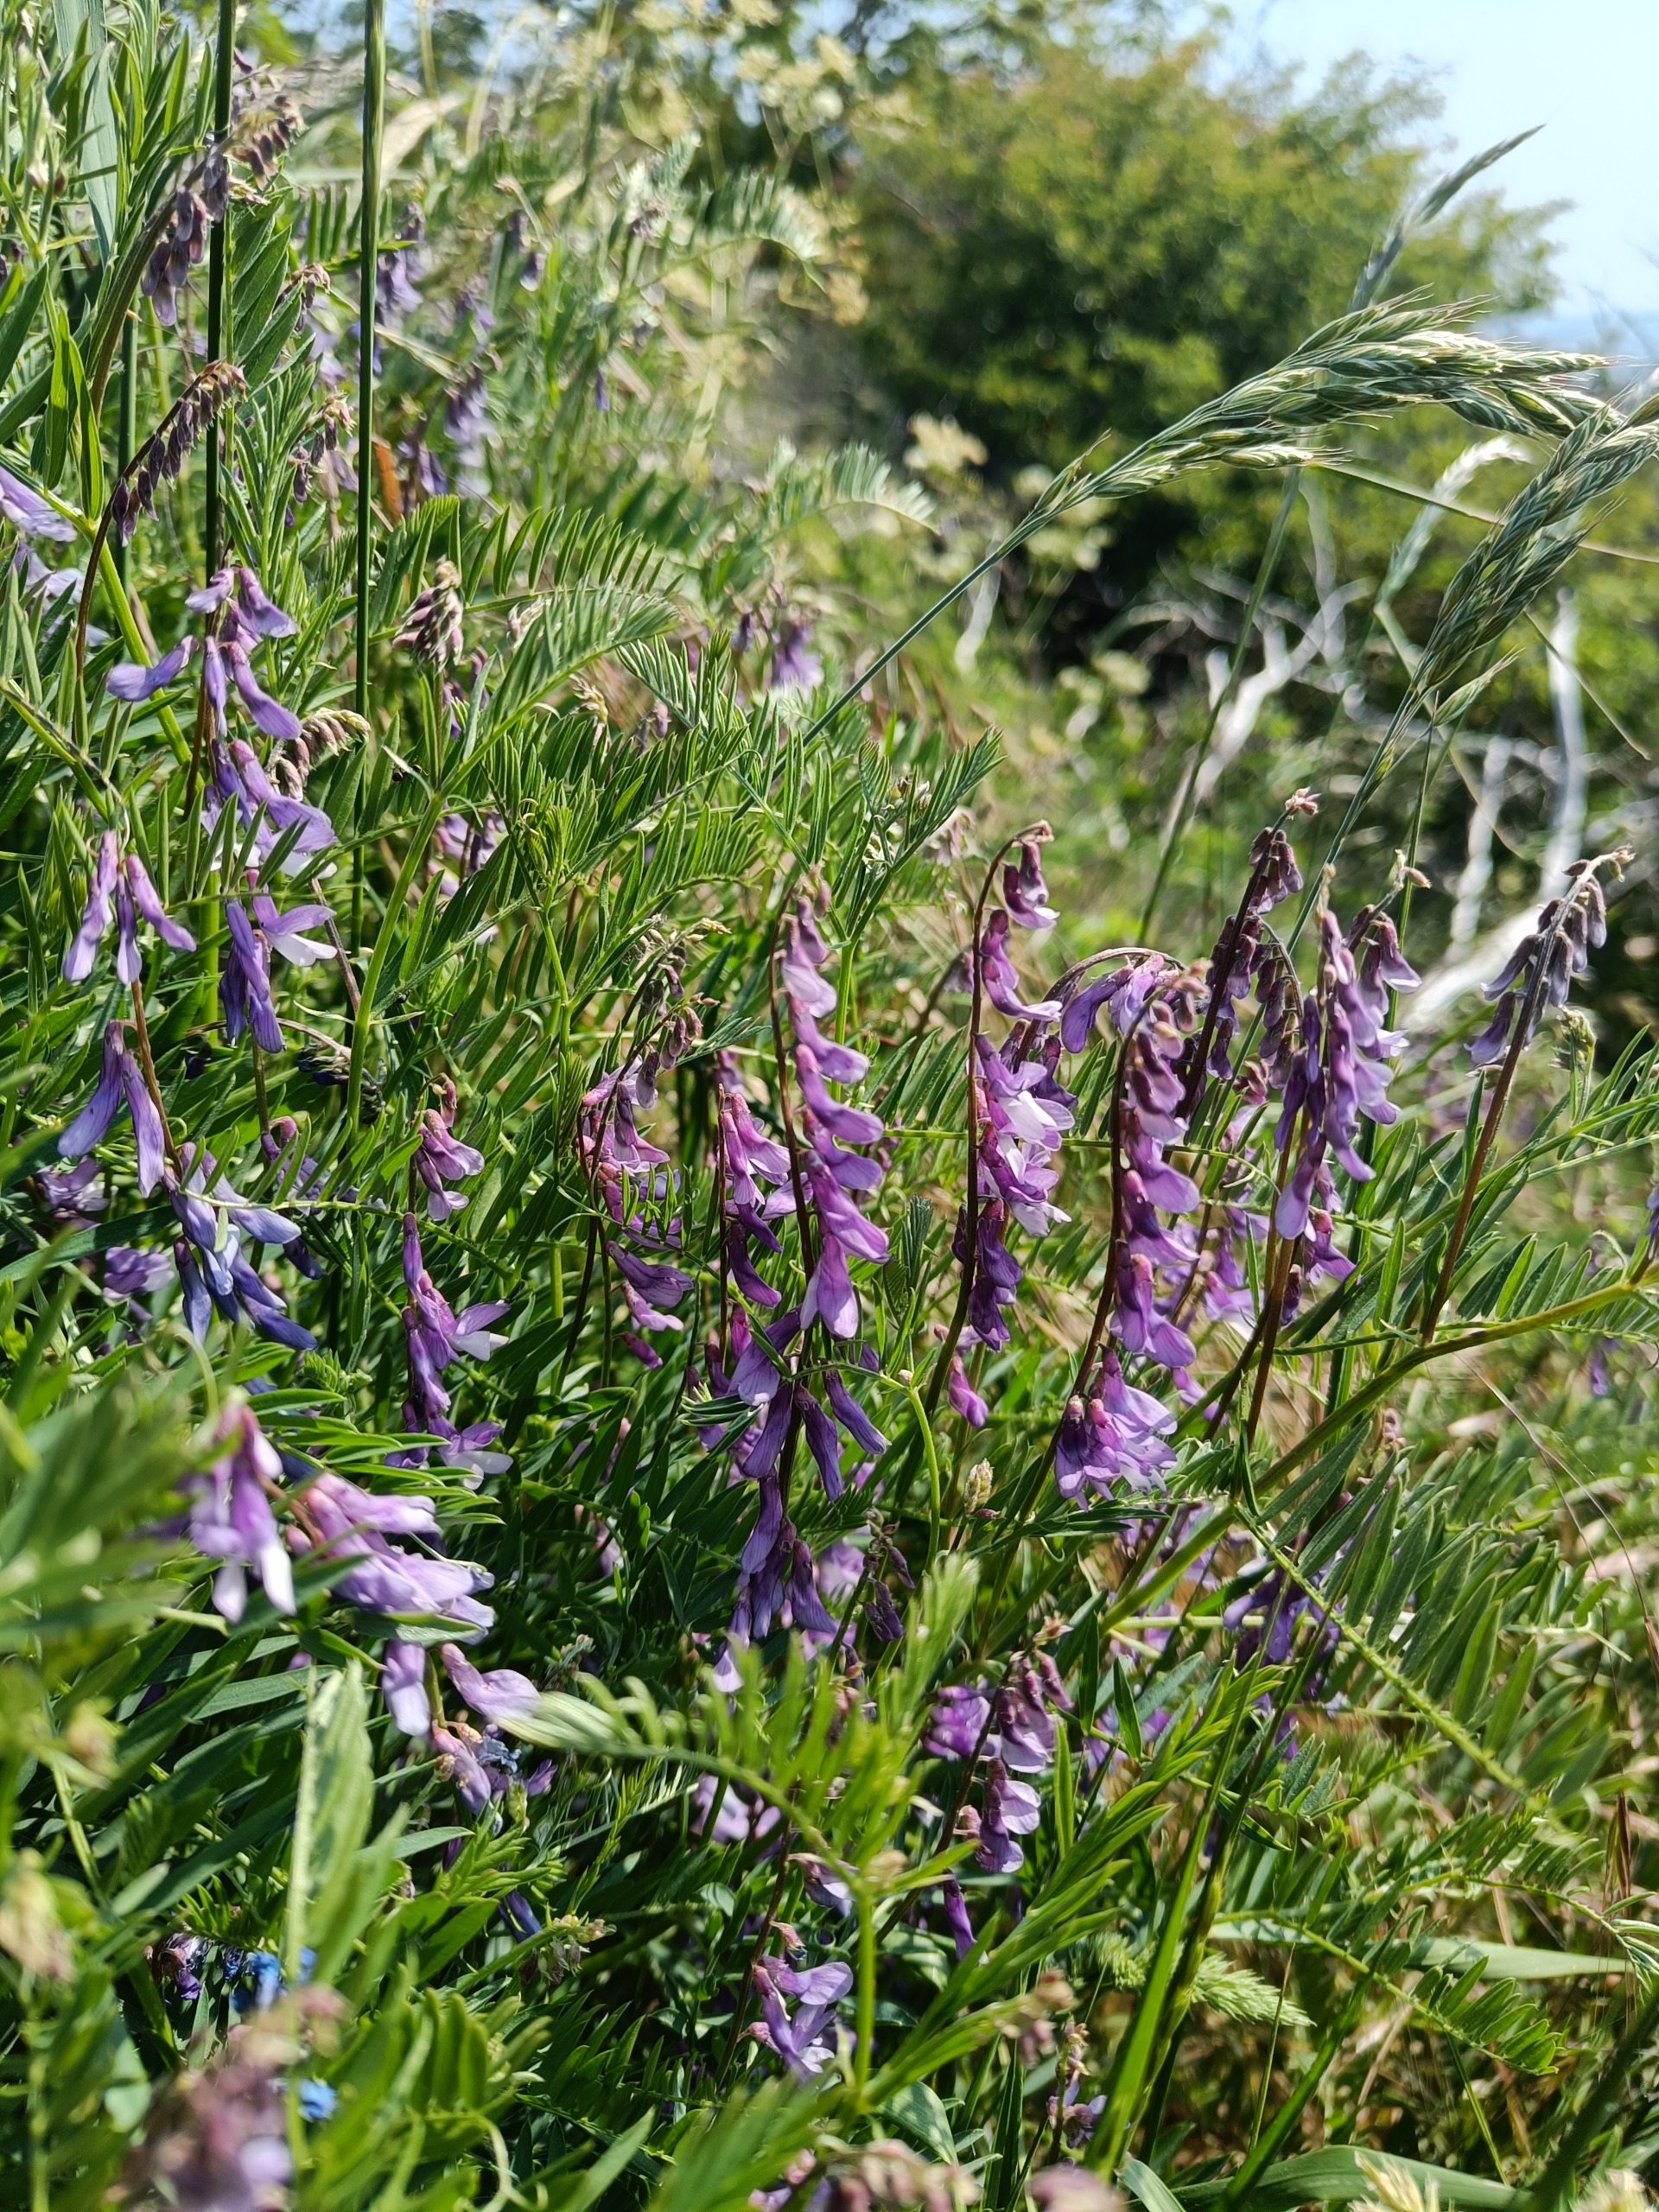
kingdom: Plantae
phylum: Tracheophyta
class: Magnoliopsida
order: Fabales
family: Fabaceae
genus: Vicia
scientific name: Vicia tenuifolia
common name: Langklaset vikke
